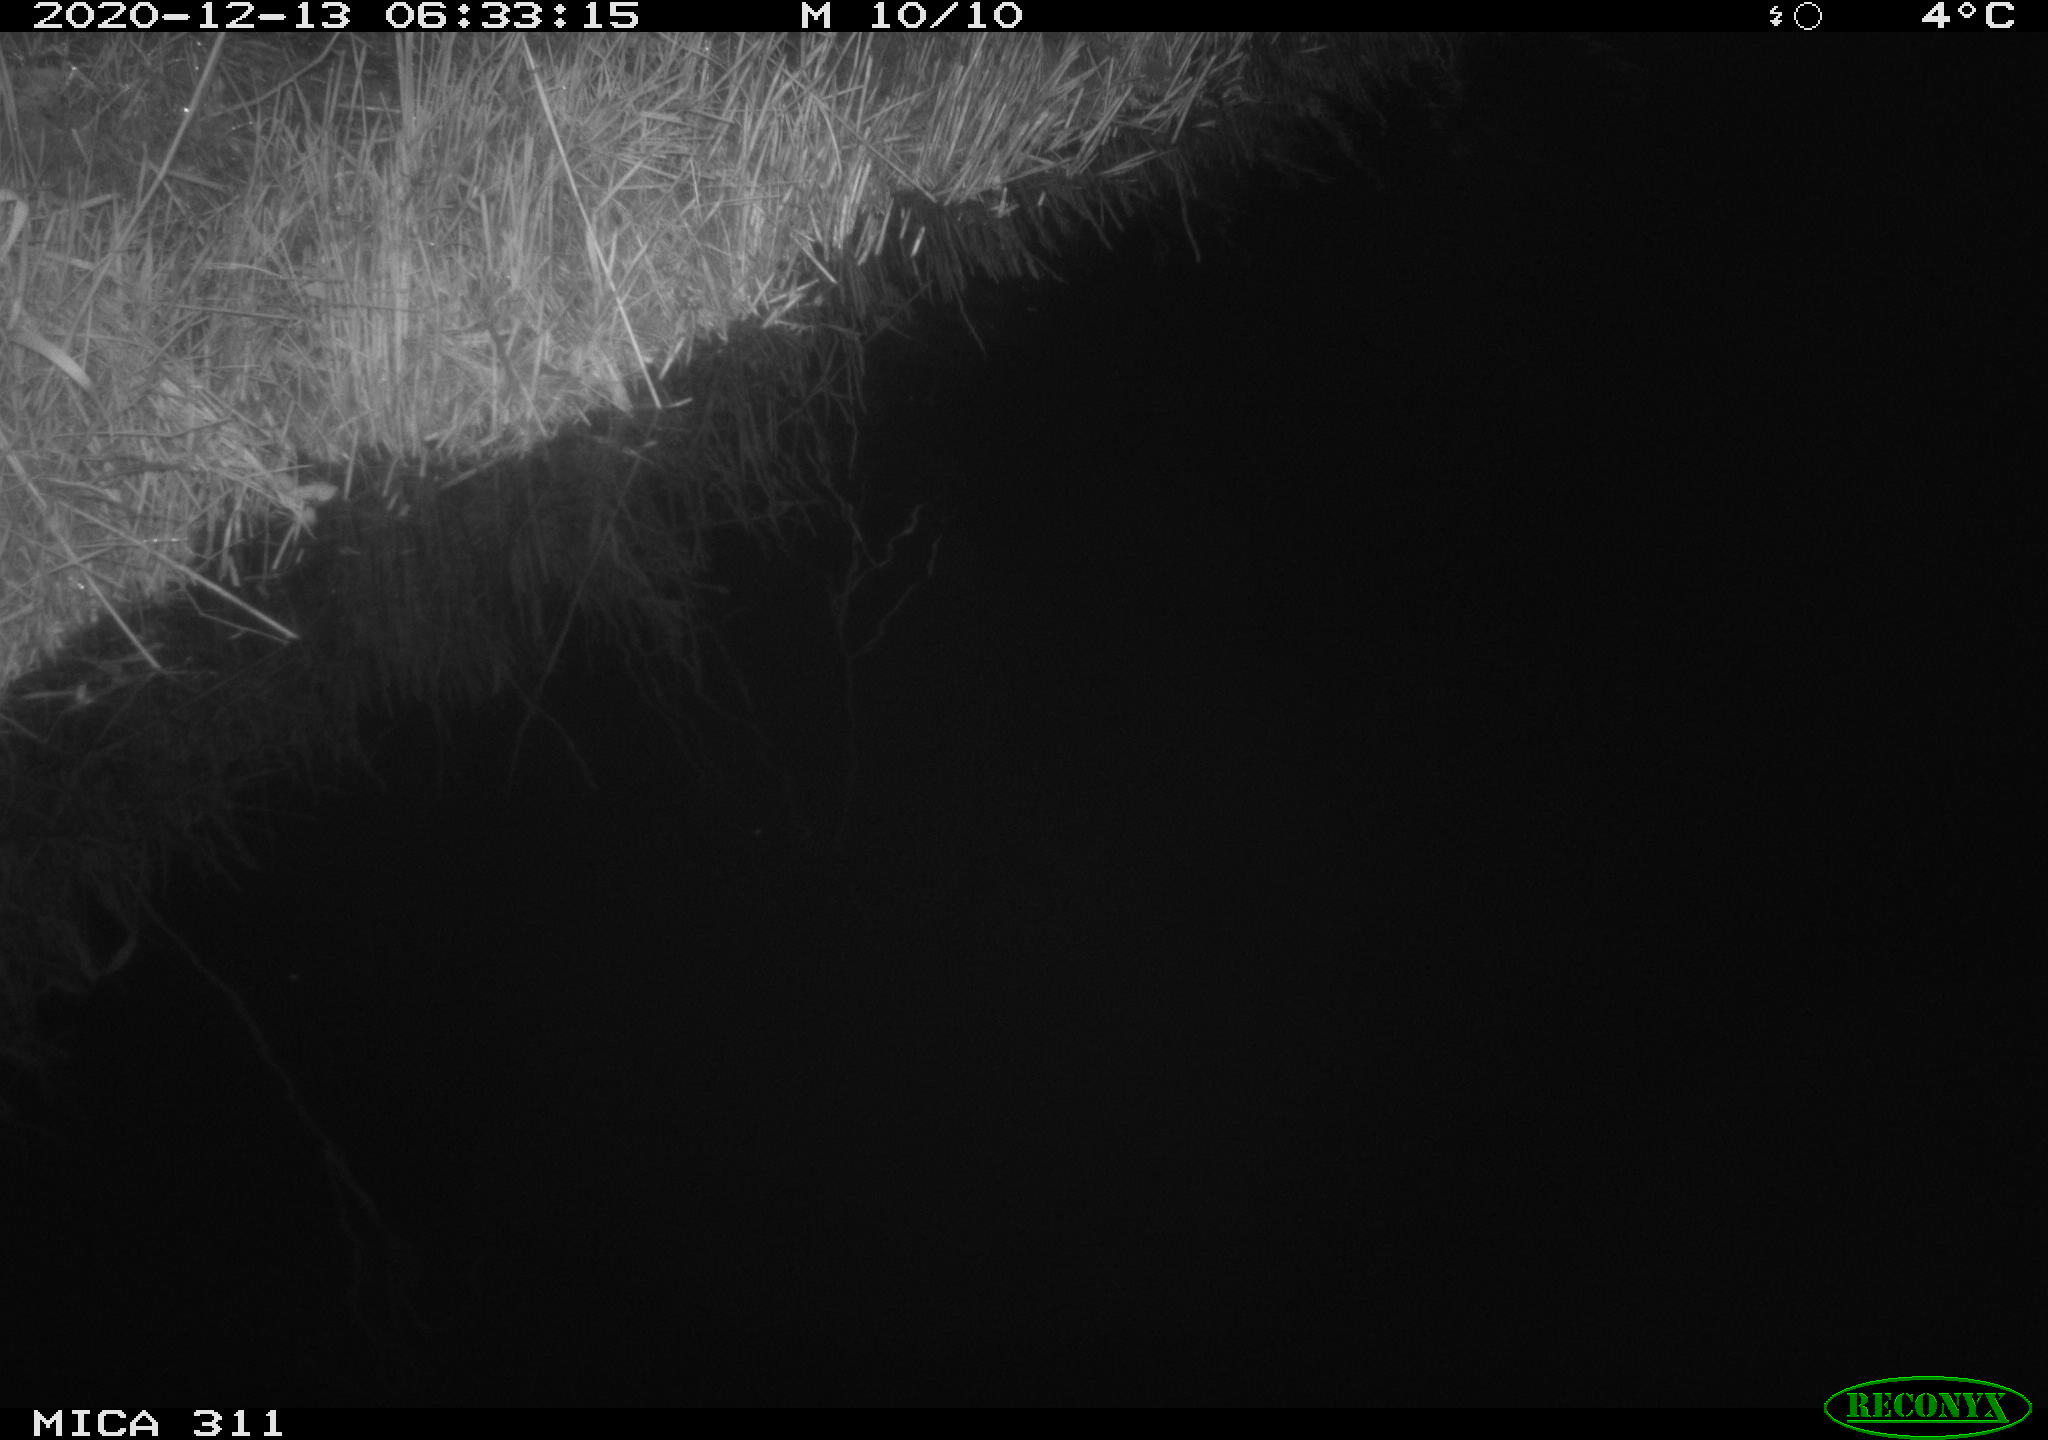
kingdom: Animalia
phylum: Chordata
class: Mammalia
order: Rodentia
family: Muridae
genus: Rattus
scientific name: Rattus norvegicus
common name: Brown rat
